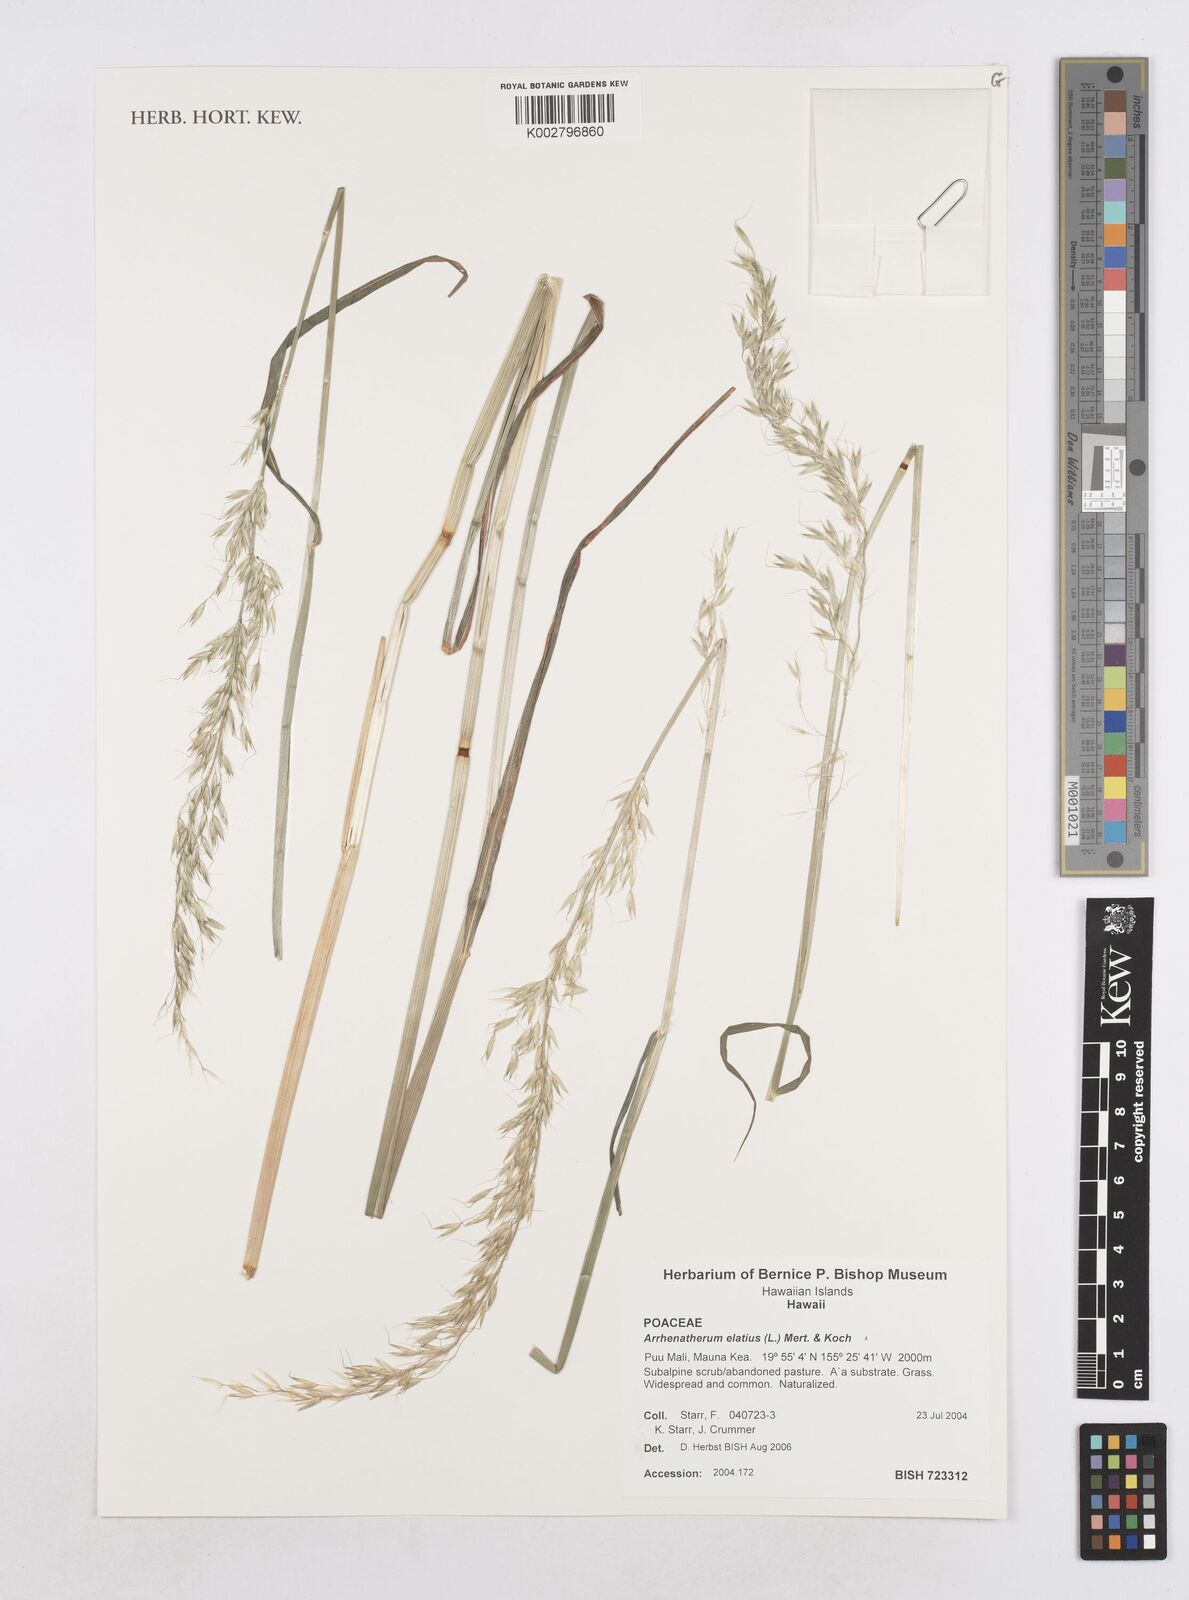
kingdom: Plantae
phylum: Tracheophyta
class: Liliopsida
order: Poales
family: Poaceae
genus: Arrhenatherum
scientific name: Arrhenatherum
